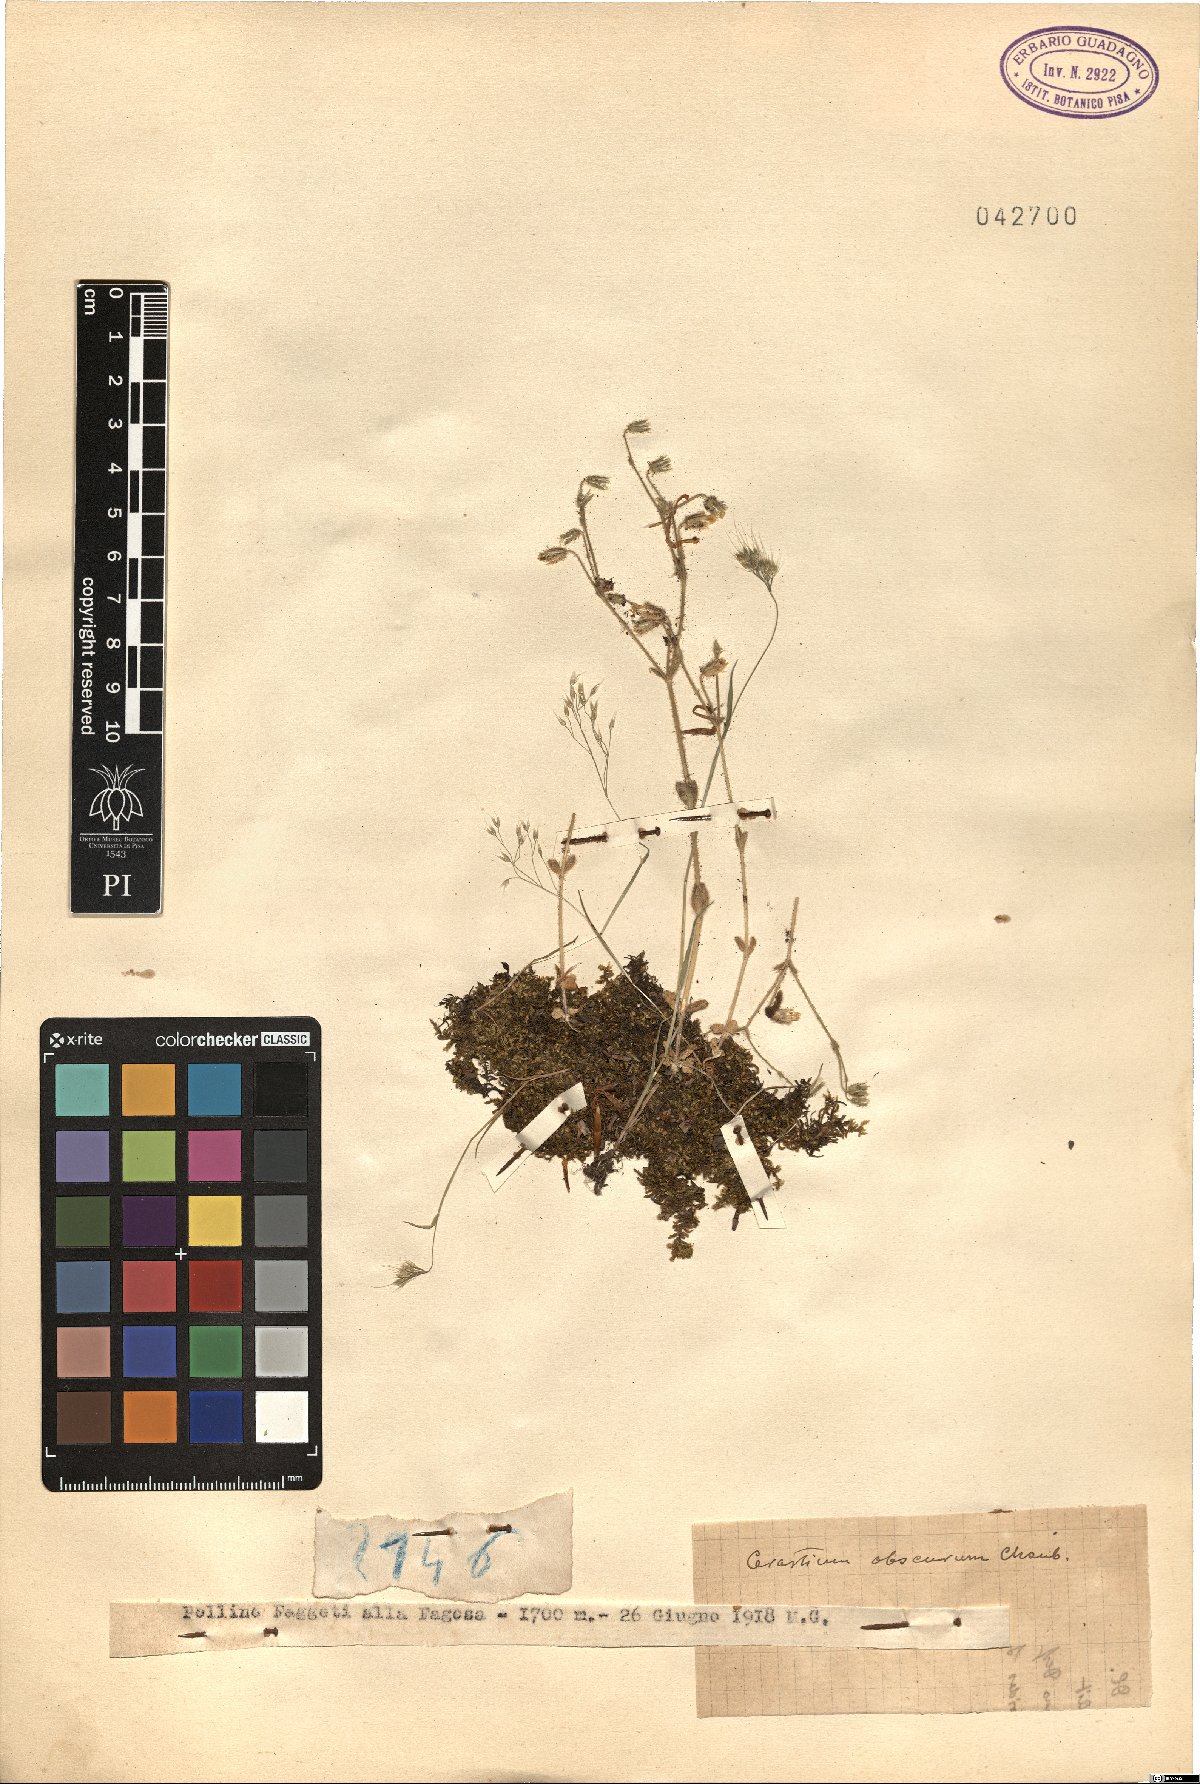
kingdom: Plantae
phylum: Tracheophyta
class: Magnoliopsida
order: Caryophyllales
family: Caryophyllaceae
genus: Cerastium
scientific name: Cerastium pumilum
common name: Dwarf mouse-ear
